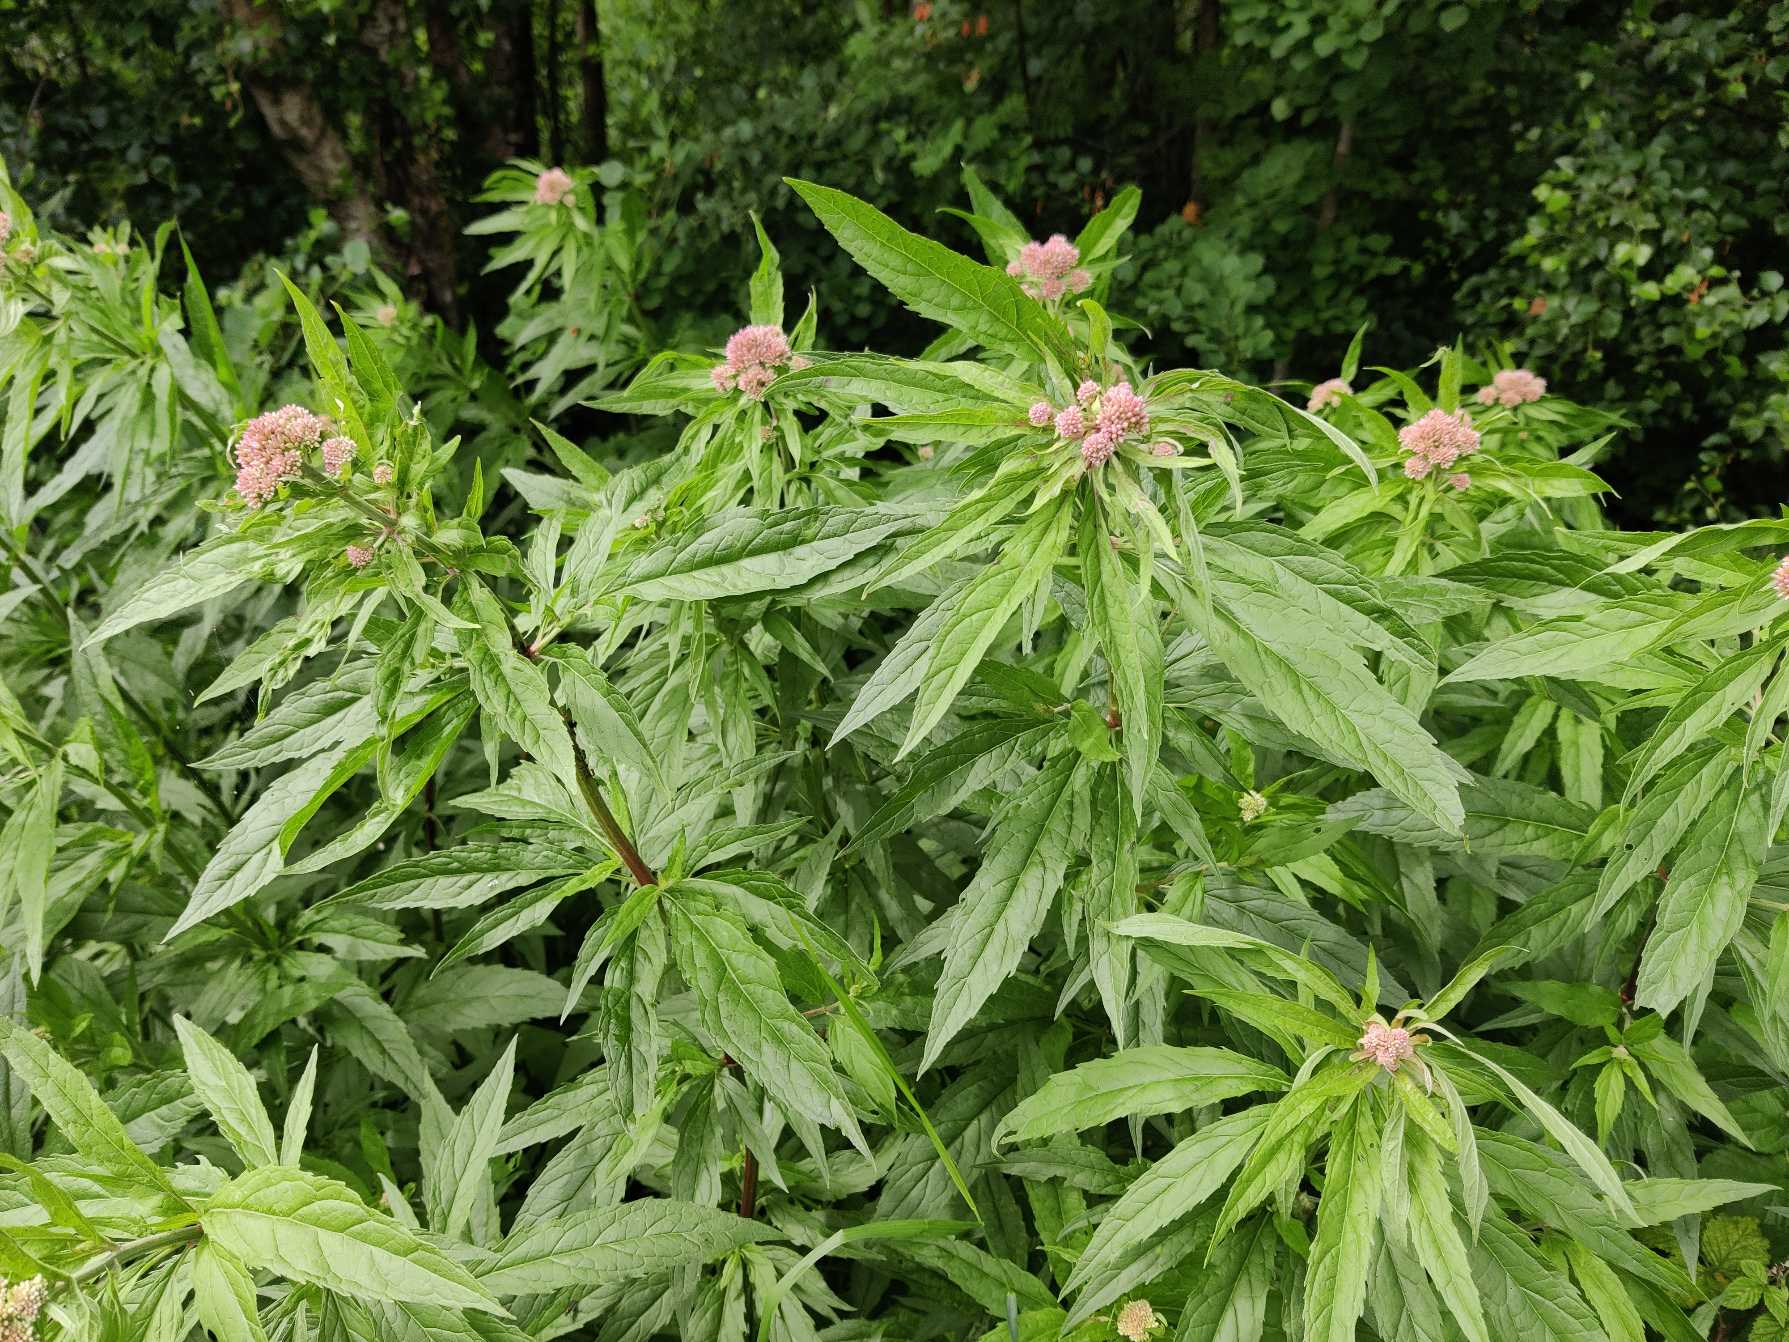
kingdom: Plantae
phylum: Tracheophyta
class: Magnoliopsida
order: Asterales
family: Asteraceae
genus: Eupatorium
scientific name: Eupatorium cannabinum
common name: Hjortetrøst
